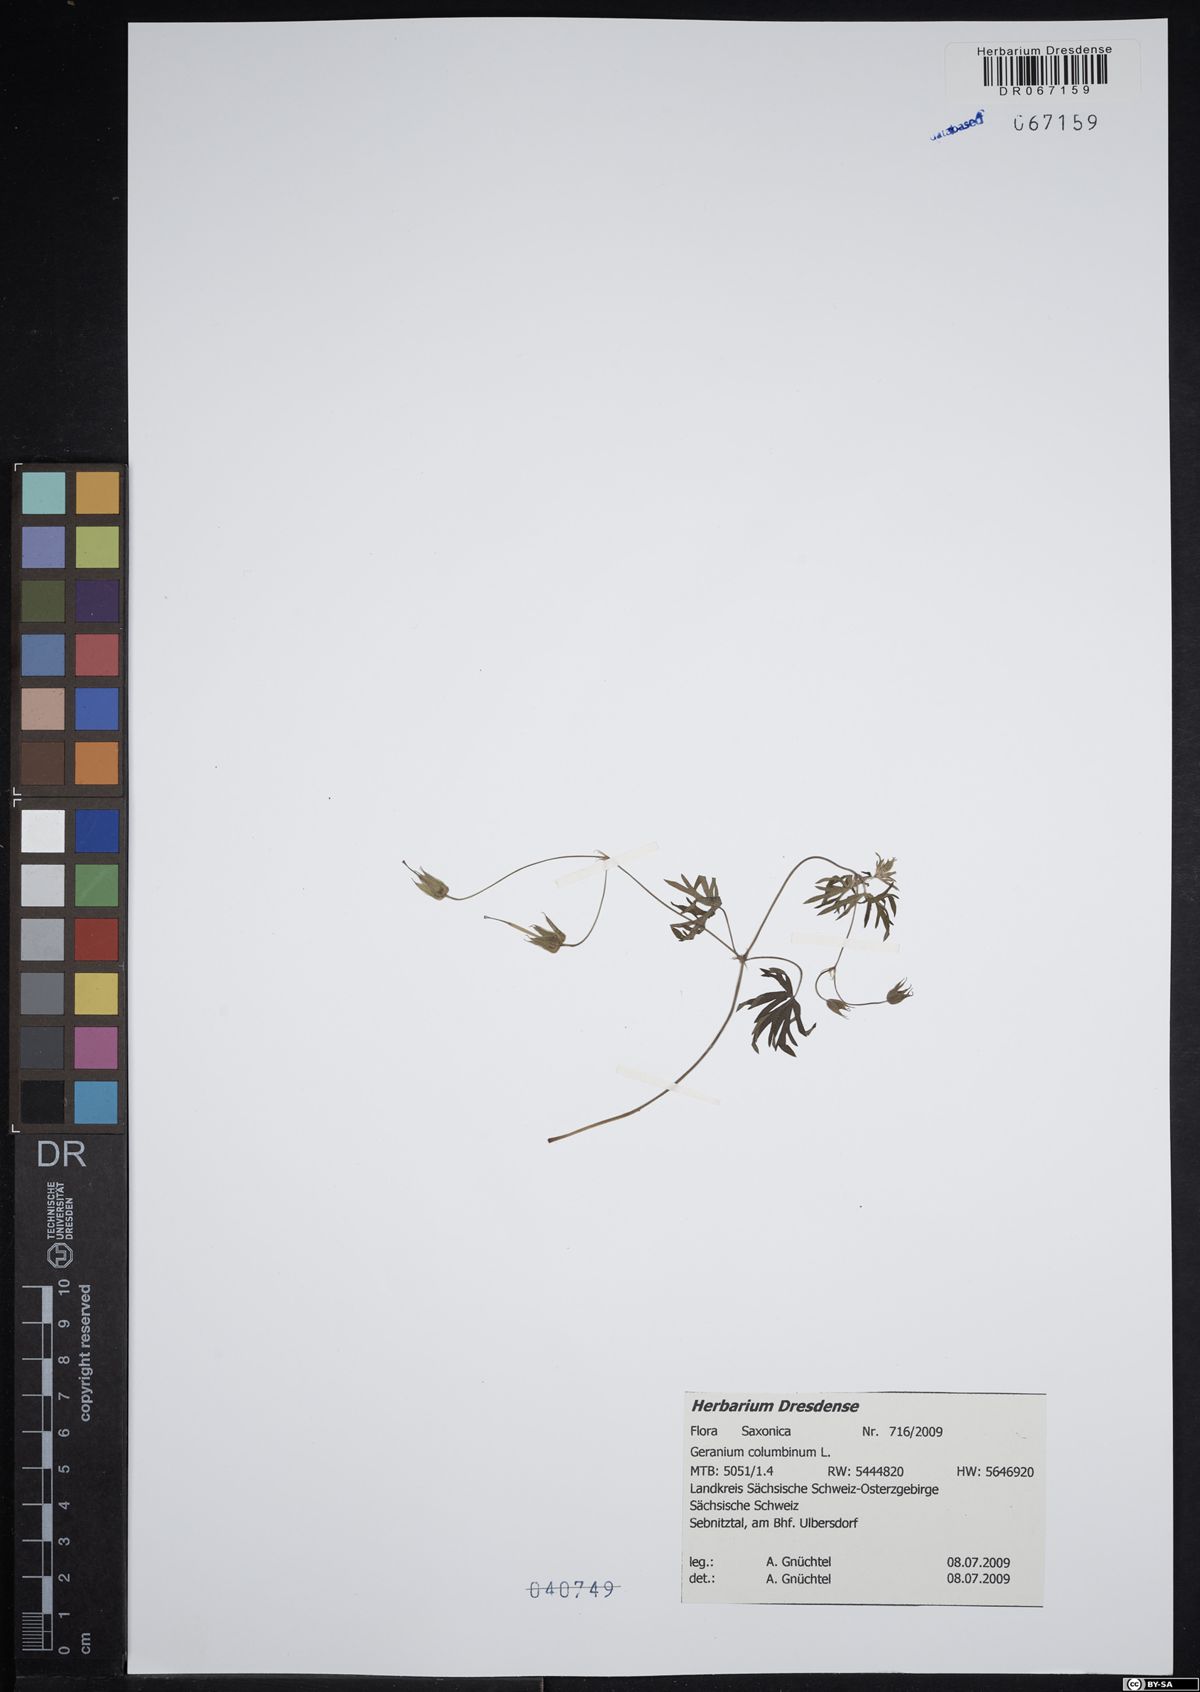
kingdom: Plantae
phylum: Tracheophyta
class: Magnoliopsida
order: Geraniales
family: Geraniaceae
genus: Geranium
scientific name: Geranium columbinum
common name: Long-stalked crane's-bill
